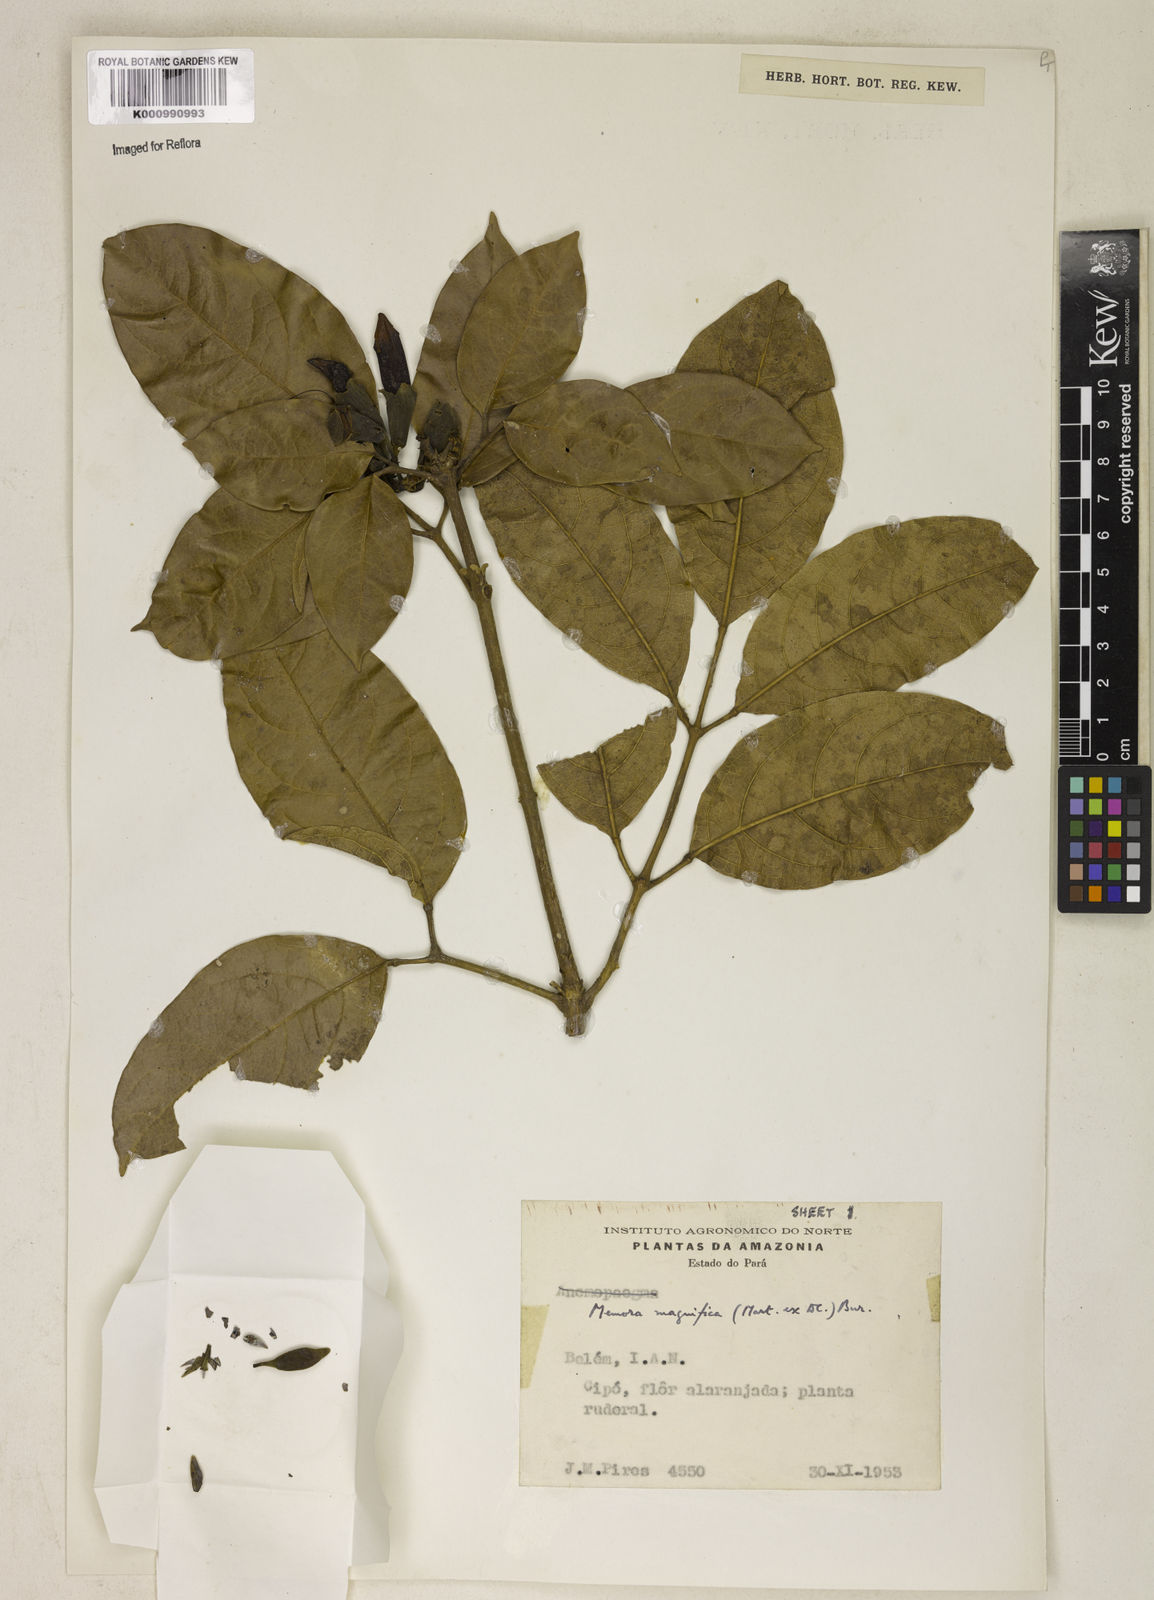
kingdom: Plantae
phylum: Tracheophyta
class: Magnoliopsida
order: Lamiales
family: Bignoniaceae
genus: Adenocalymma
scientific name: Adenocalymma magnificum
